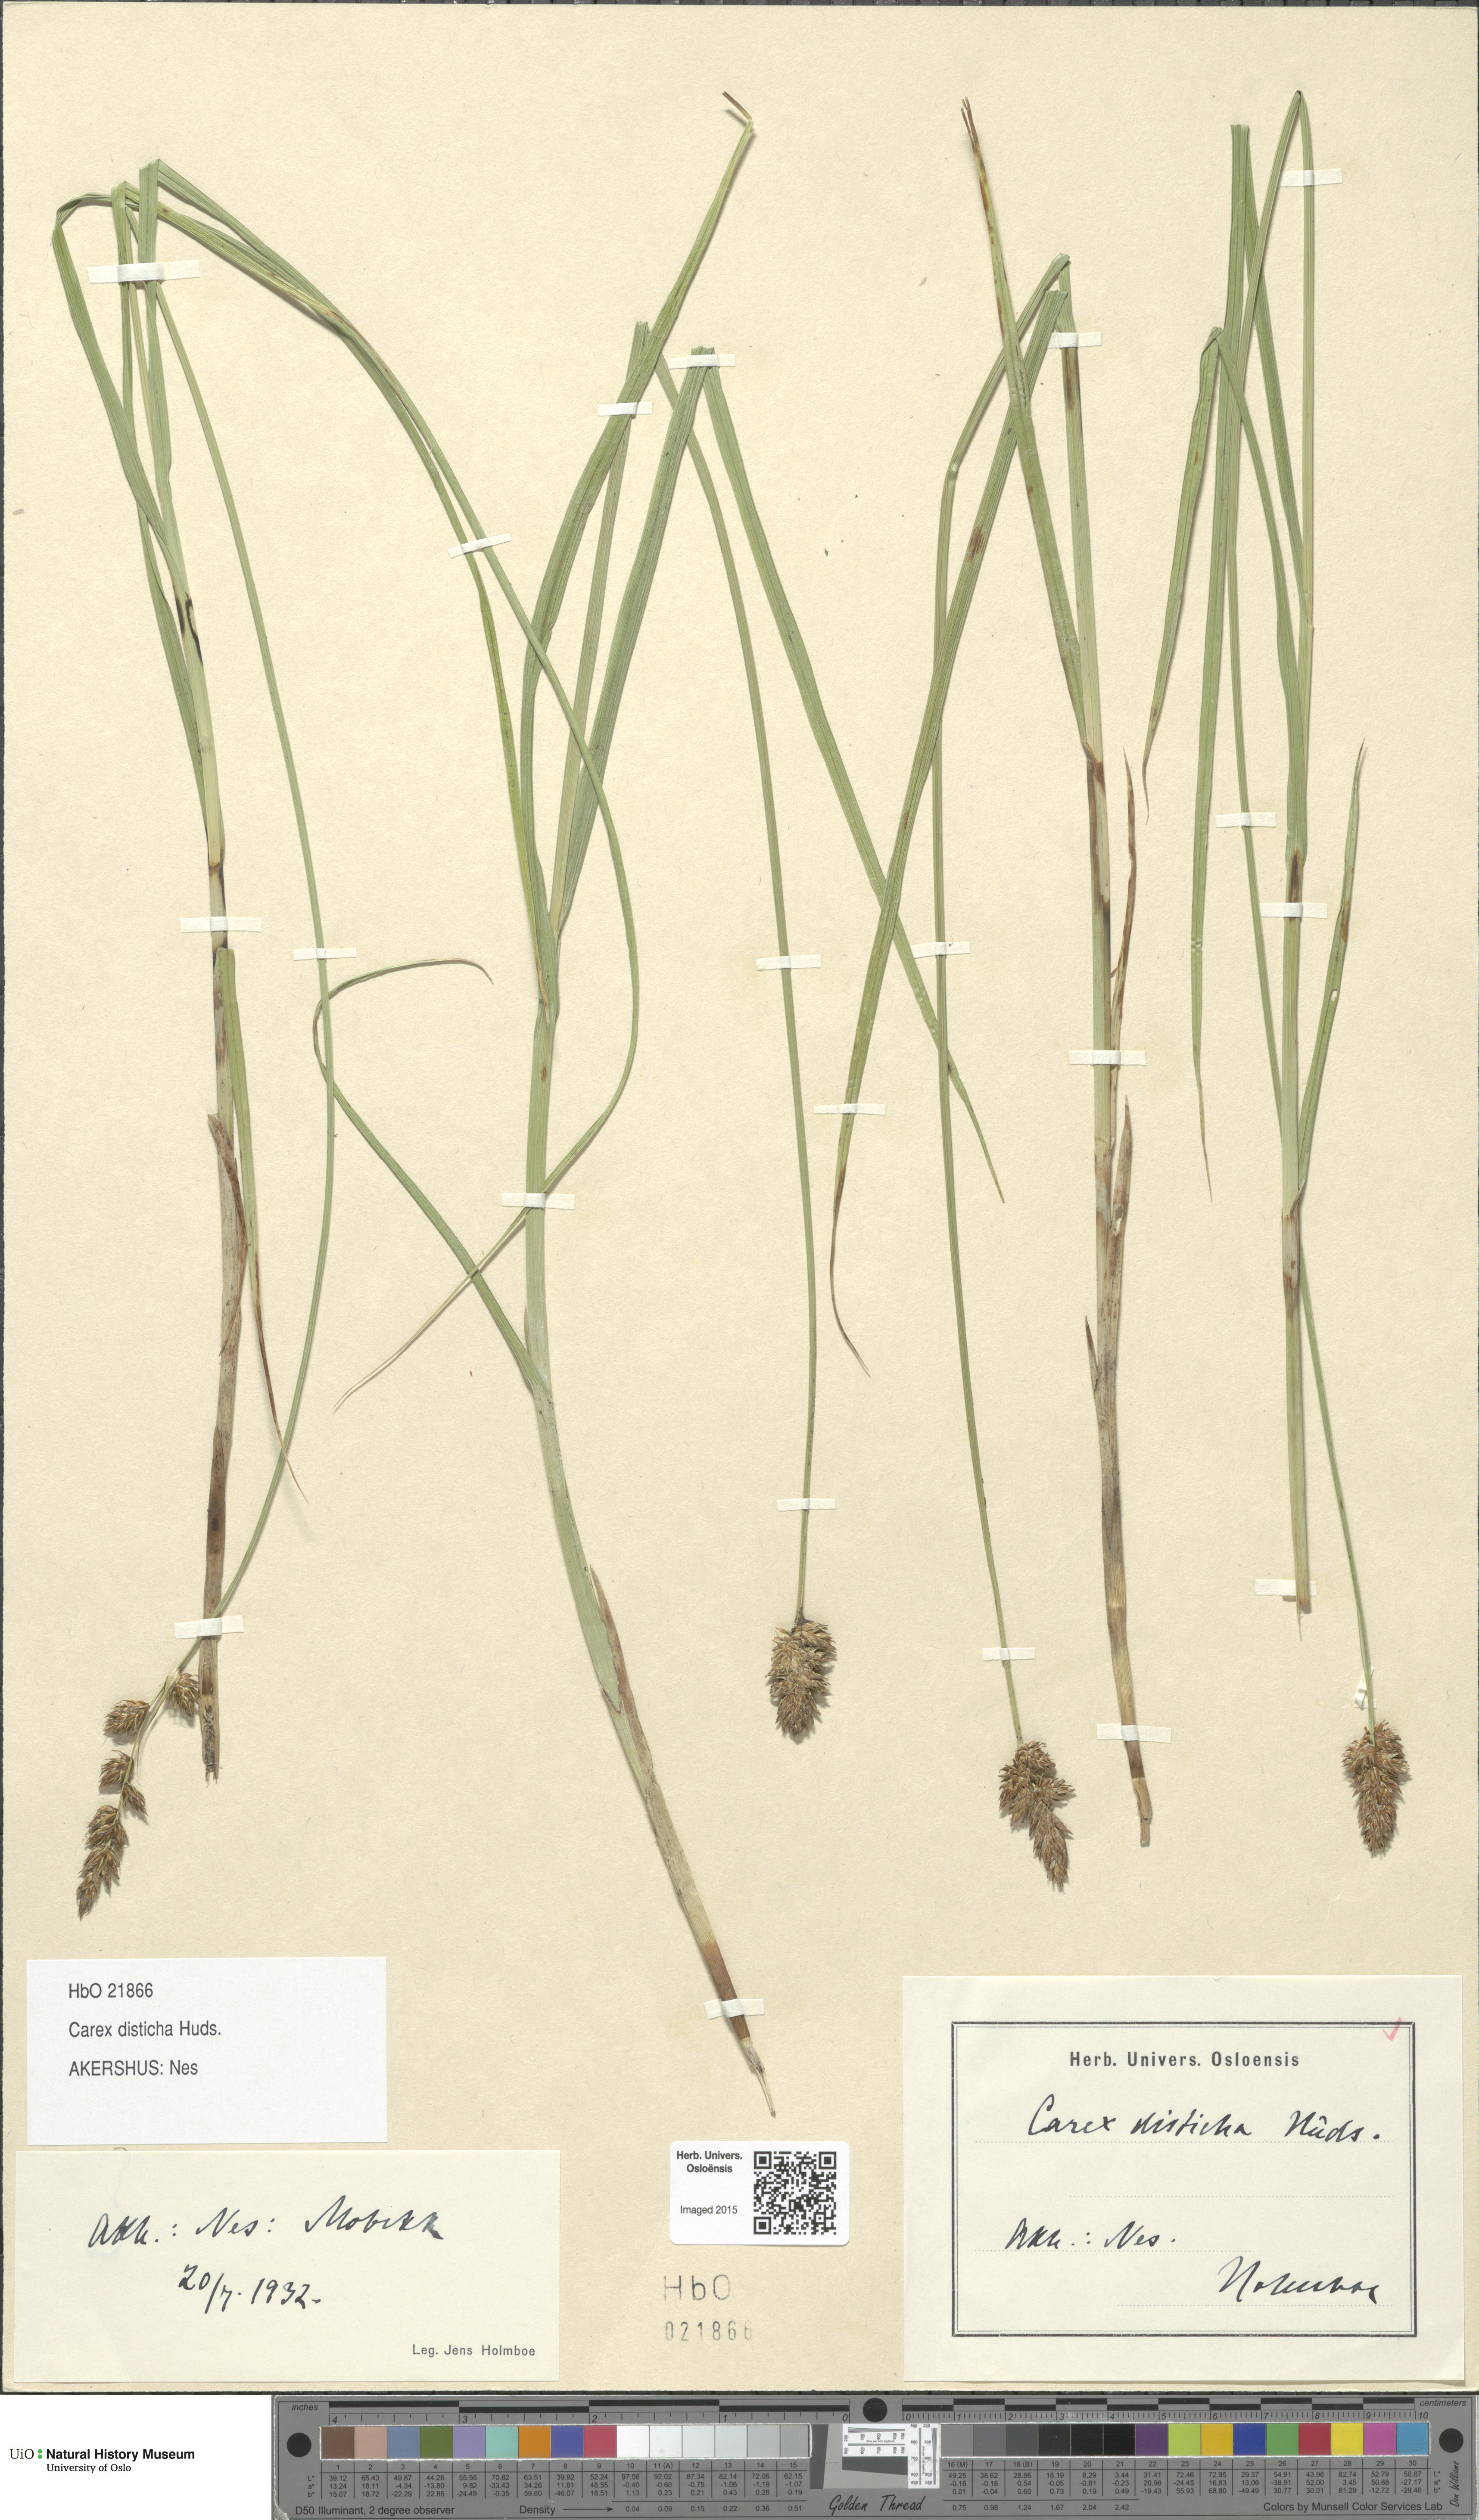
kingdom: Plantae
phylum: Tracheophyta
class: Liliopsida
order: Poales
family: Cyperaceae
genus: Carex
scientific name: Carex disticha
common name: Brown sedge
